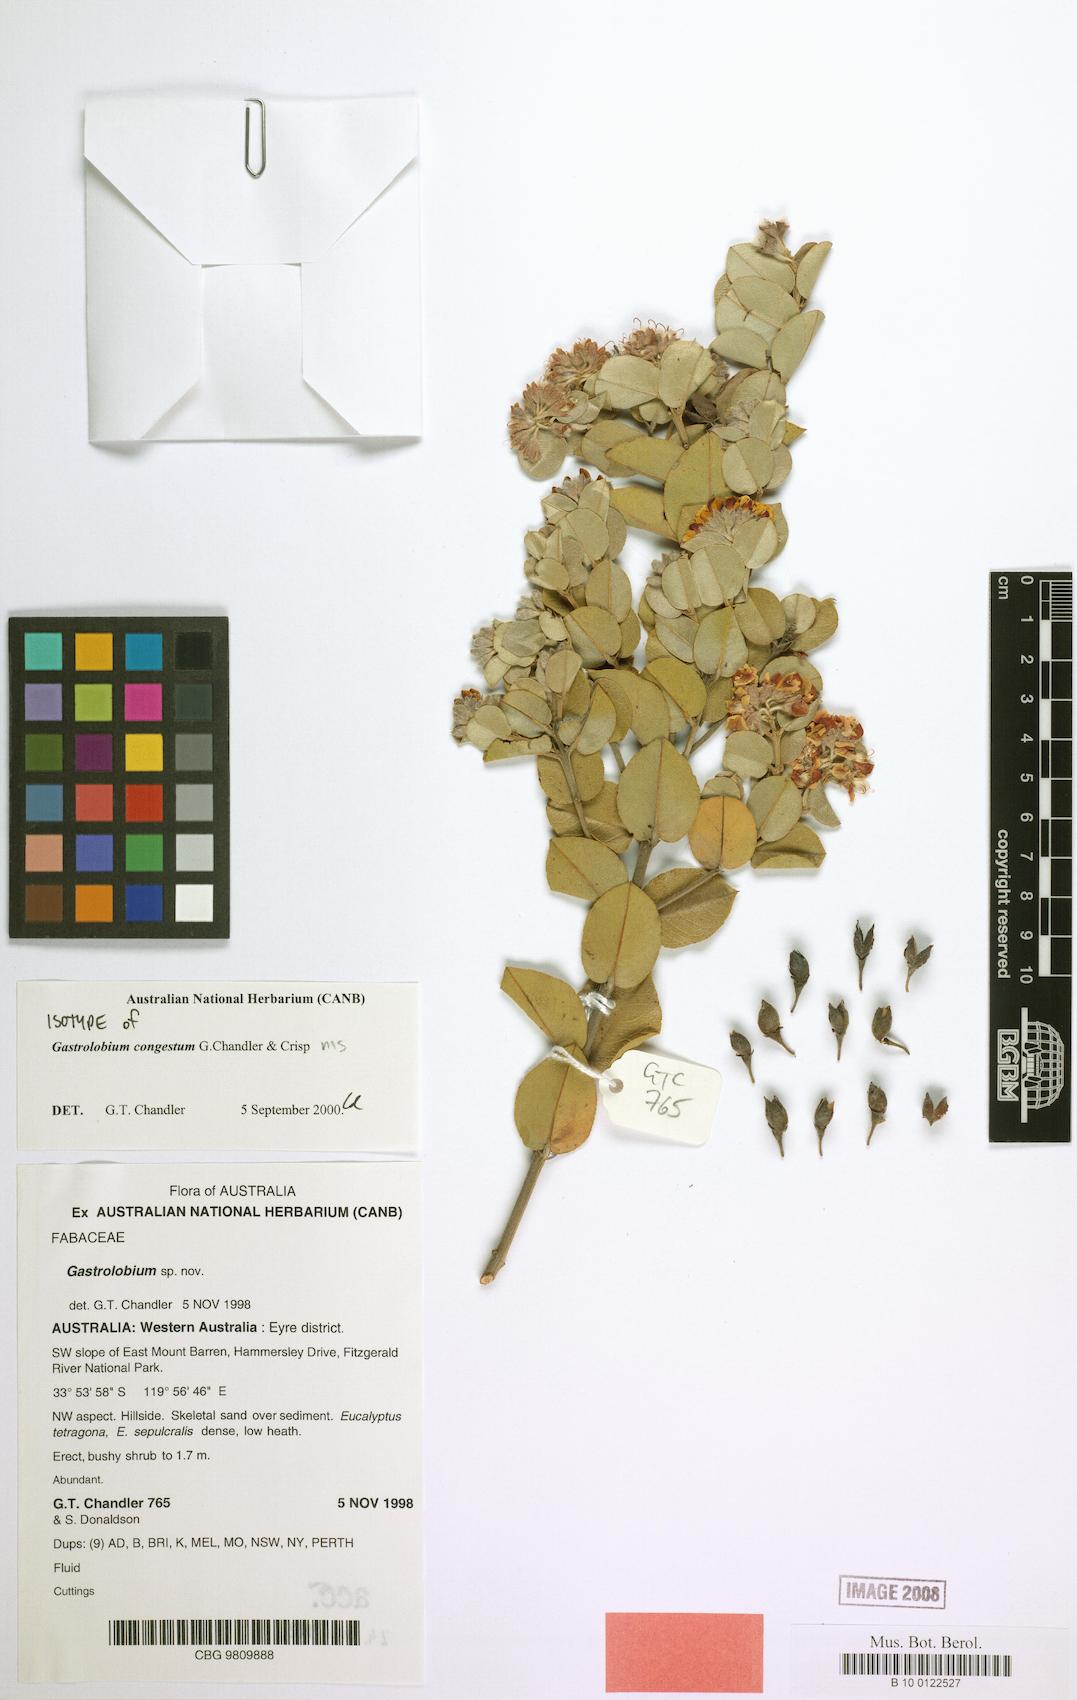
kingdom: Plantae
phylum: Tracheophyta
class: Magnoliopsida
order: Fabales
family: Fabaceae
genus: Gastrolobium
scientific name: Gastrolobium congestum
